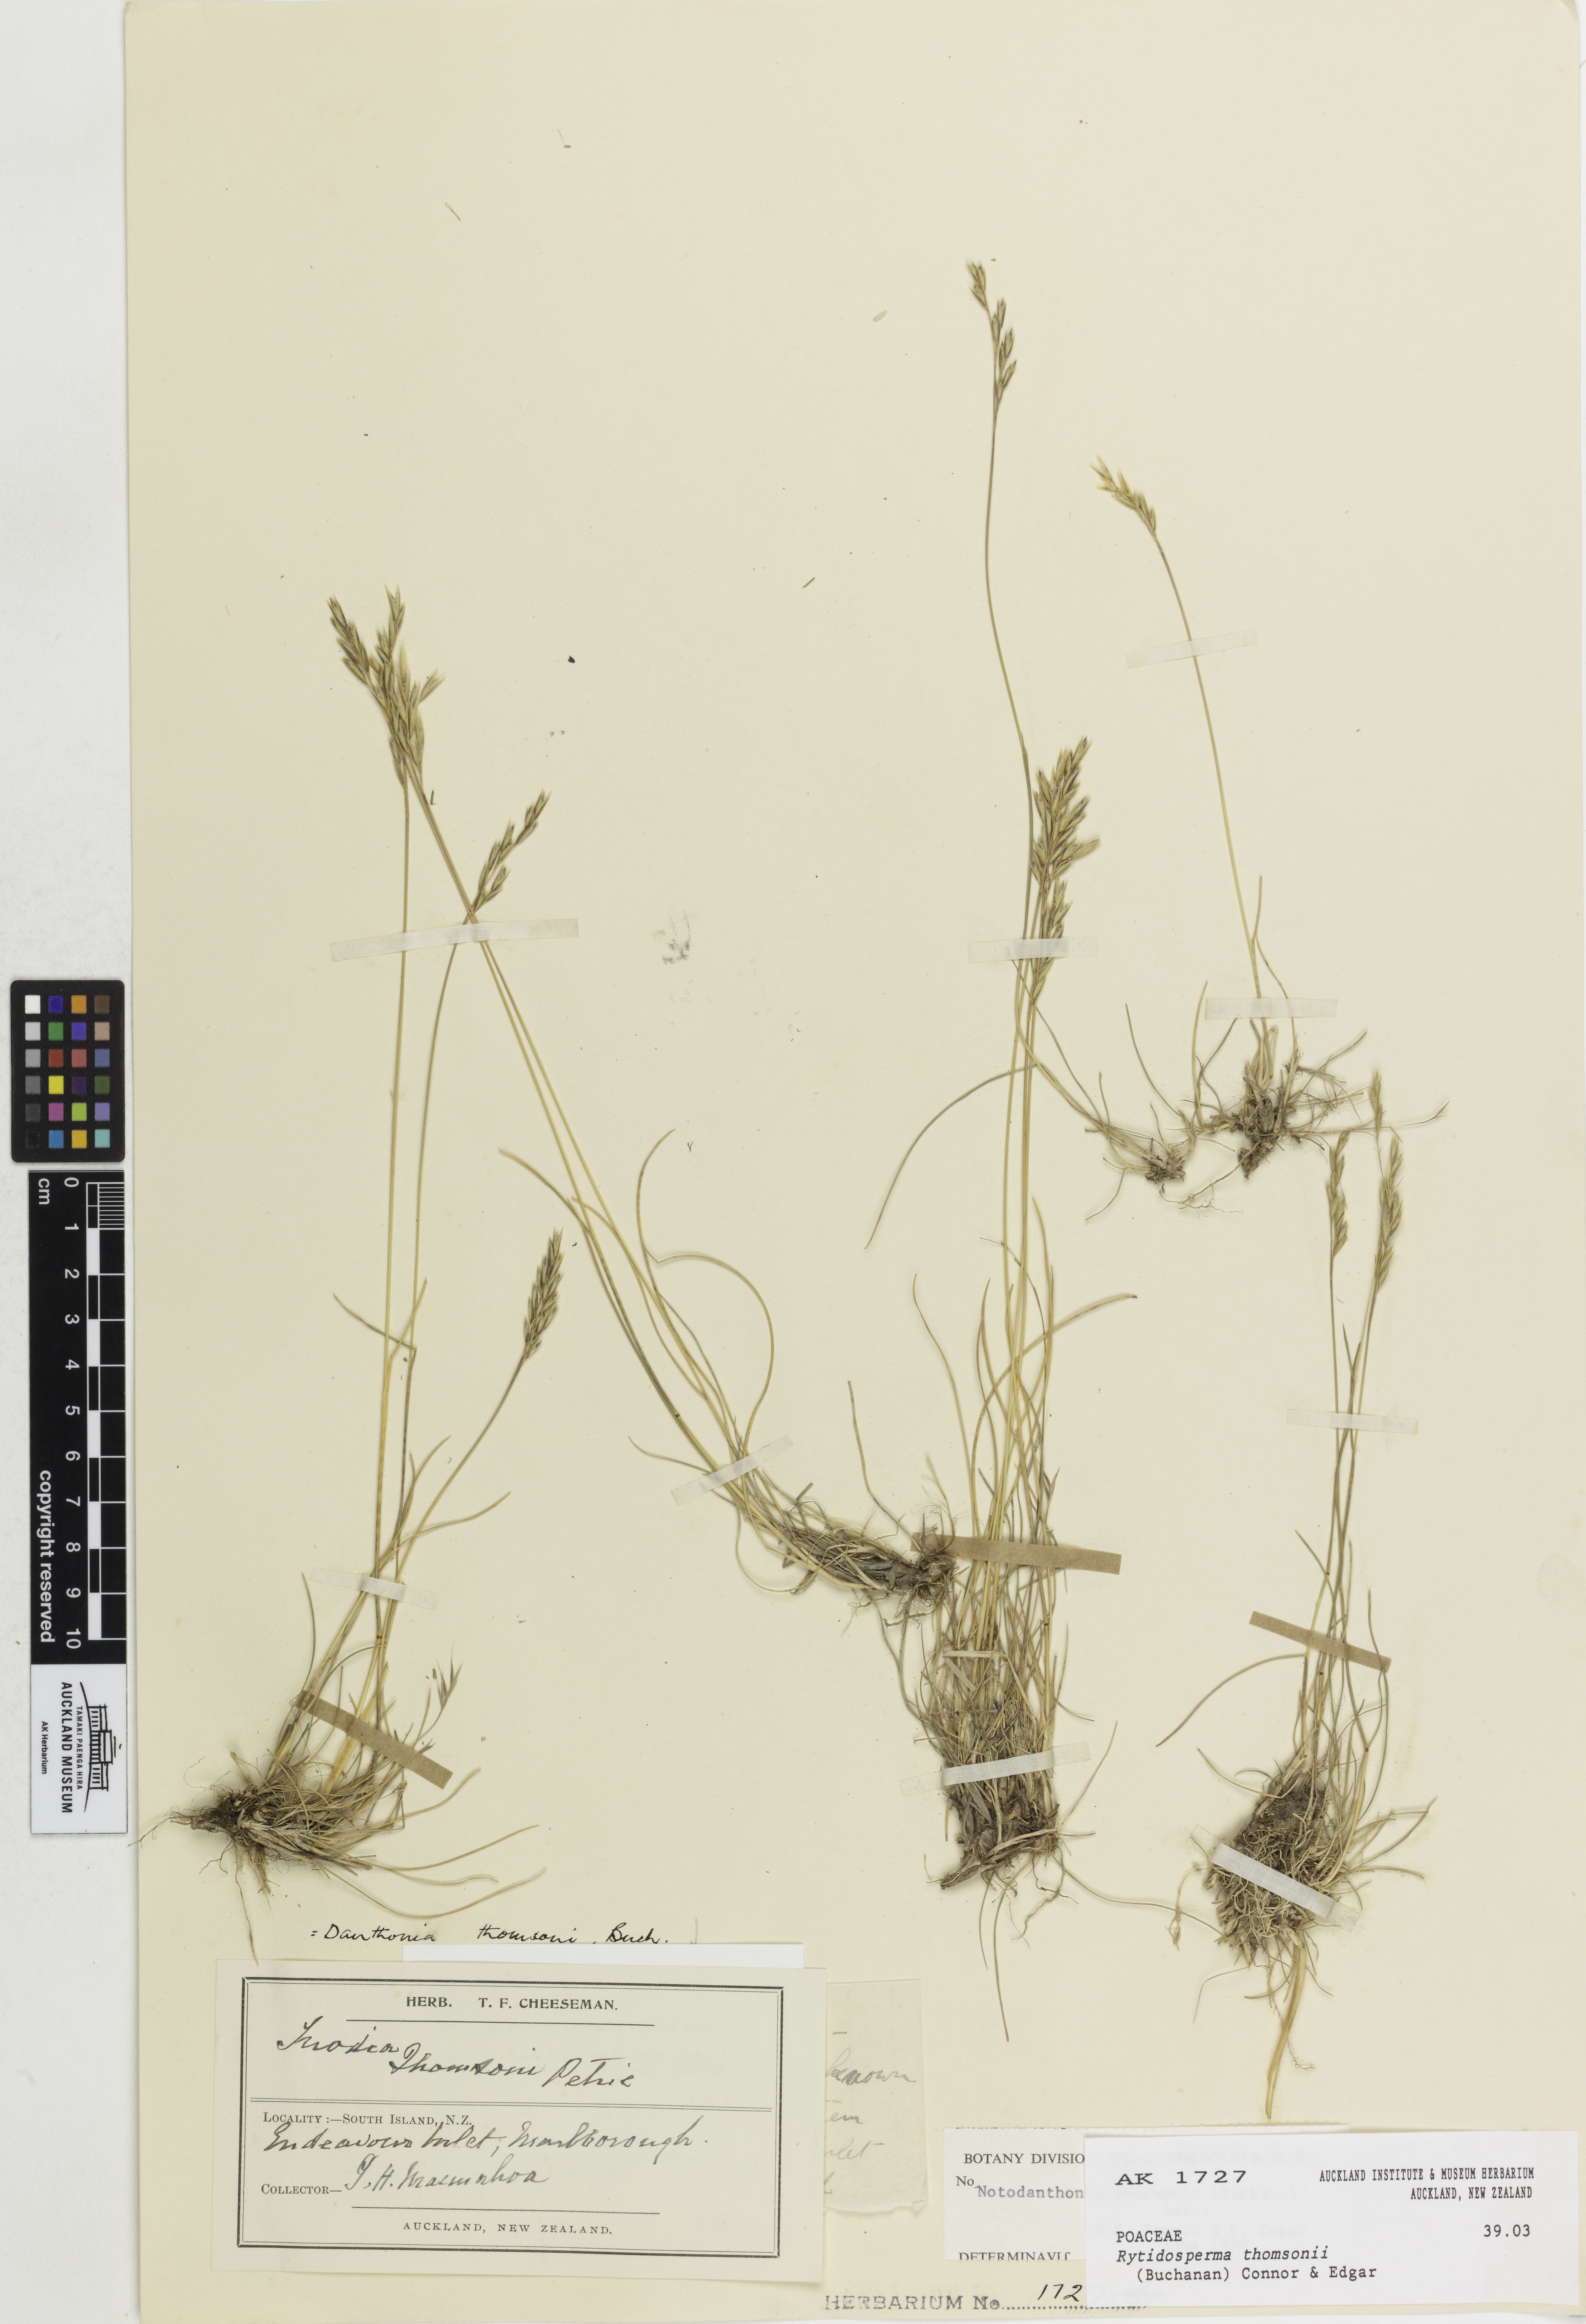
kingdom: Plantae
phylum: Tracheophyta
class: Liliopsida
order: Poales
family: Poaceae
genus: Rytidosperma
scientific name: Rytidosperma thomsonii
